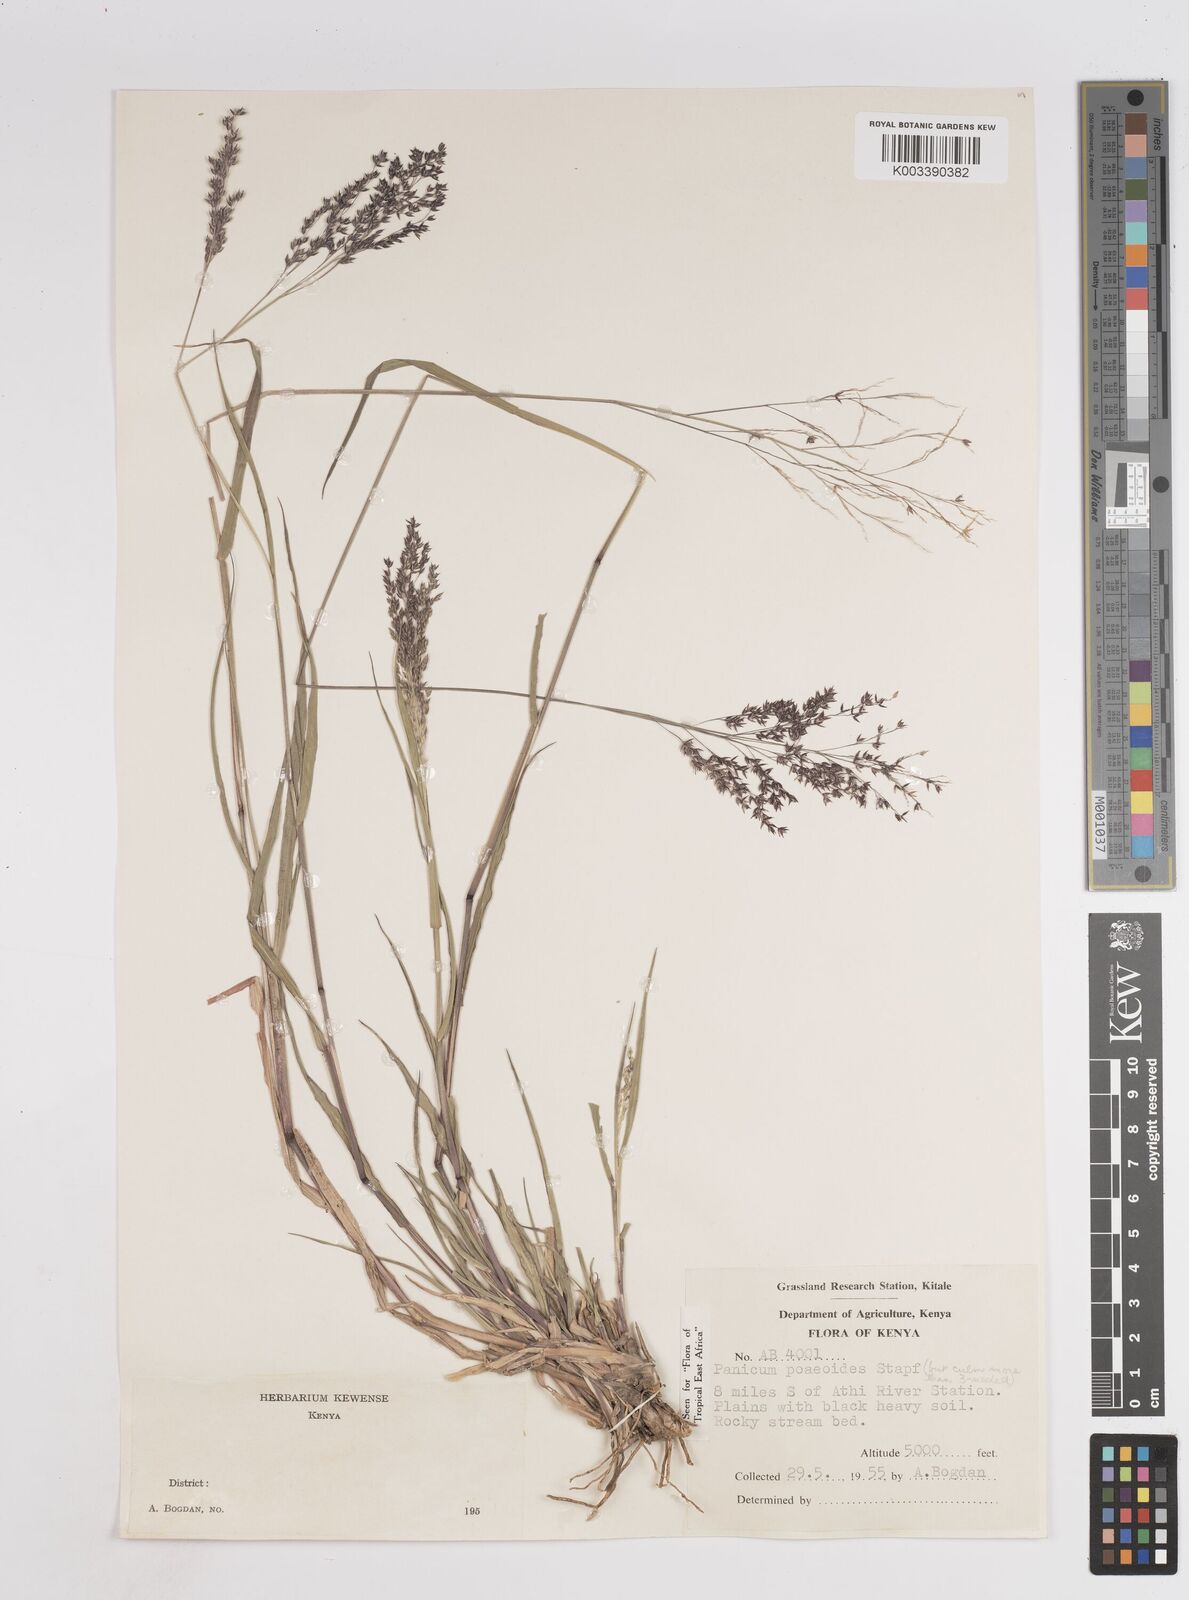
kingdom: Plantae
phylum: Tracheophyta
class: Liliopsida
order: Poales
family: Poaceae
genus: Panicum
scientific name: Panicum
